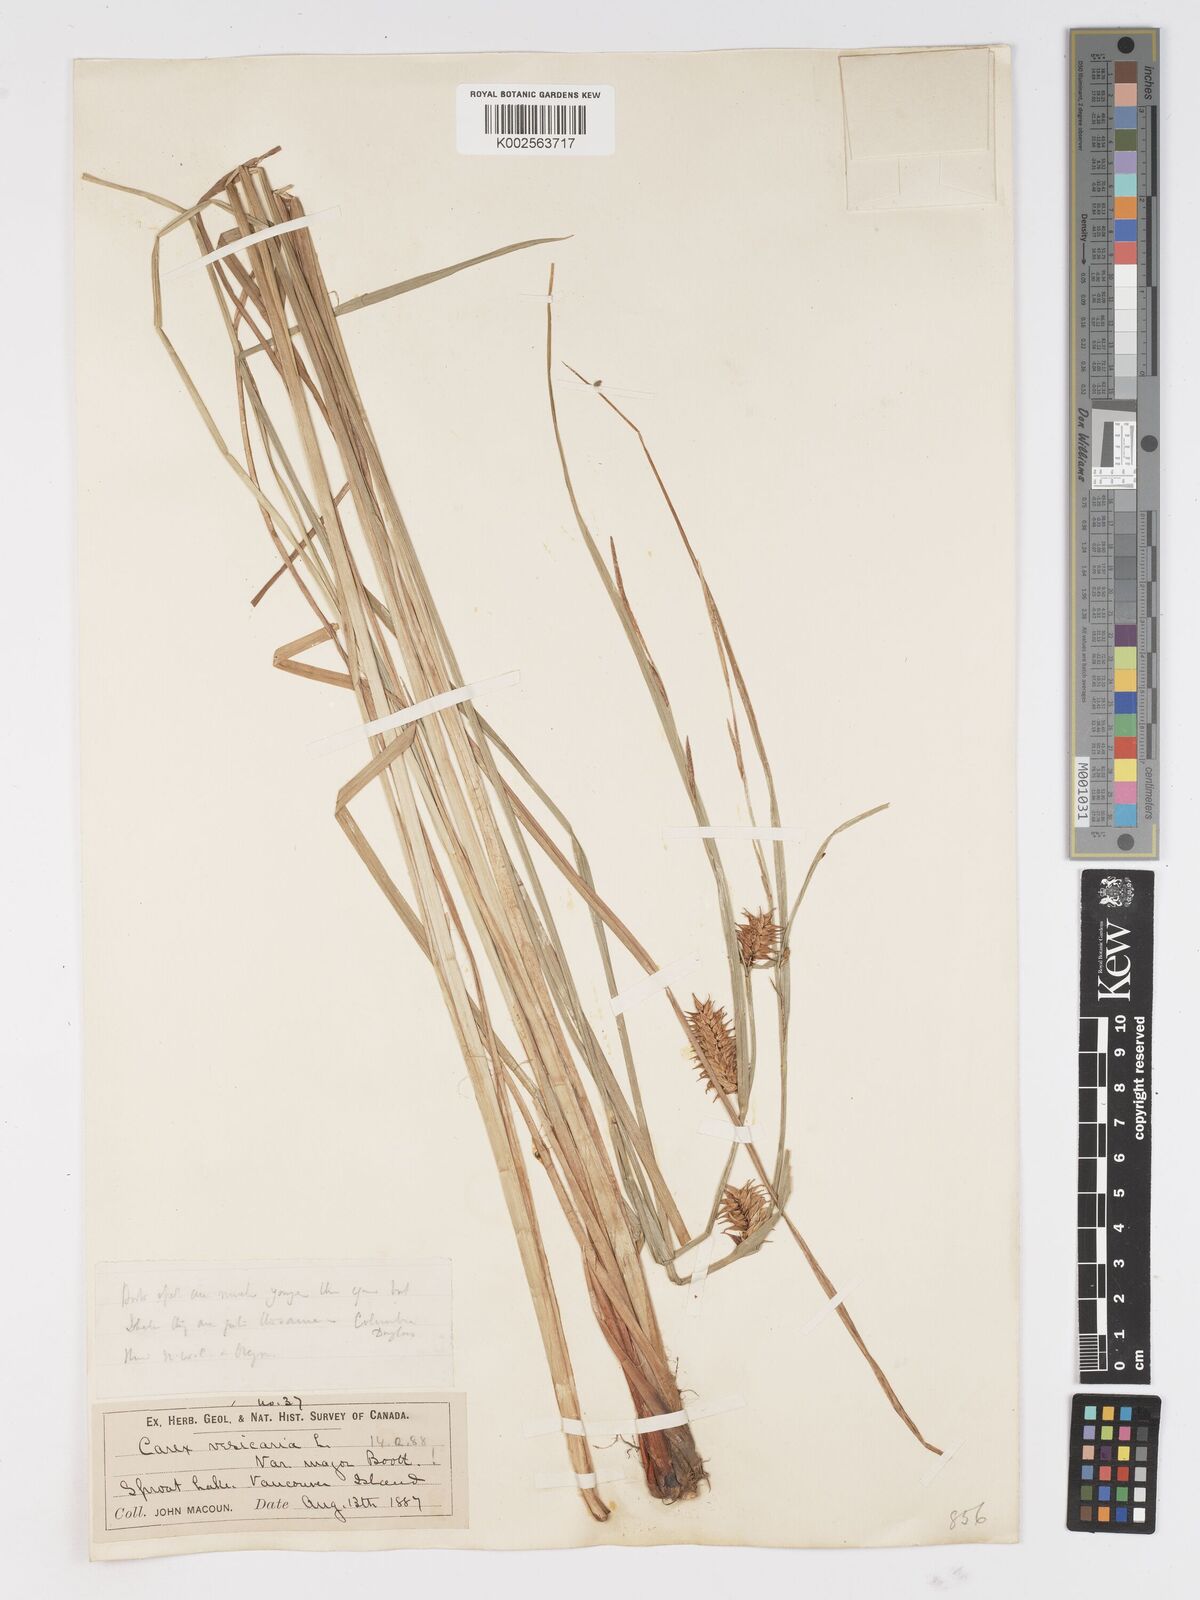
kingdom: Plantae
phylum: Tracheophyta
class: Liliopsida
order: Poales
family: Cyperaceae
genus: Carex
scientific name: Carex vesicaria
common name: Bladder-sedge
